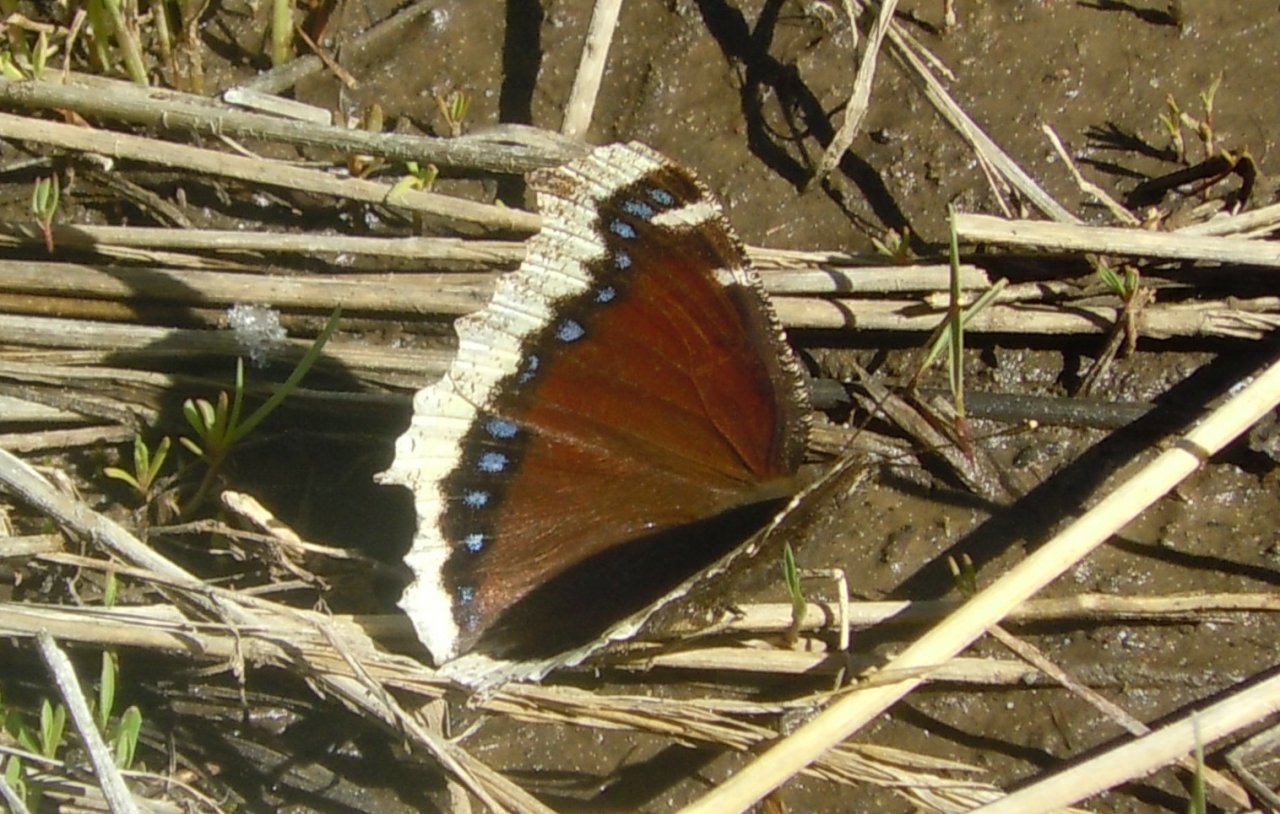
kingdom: Animalia
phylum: Arthropoda
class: Insecta
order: Lepidoptera
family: Nymphalidae
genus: Nymphalis
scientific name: Nymphalis antiopa
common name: Mourning Cloak
